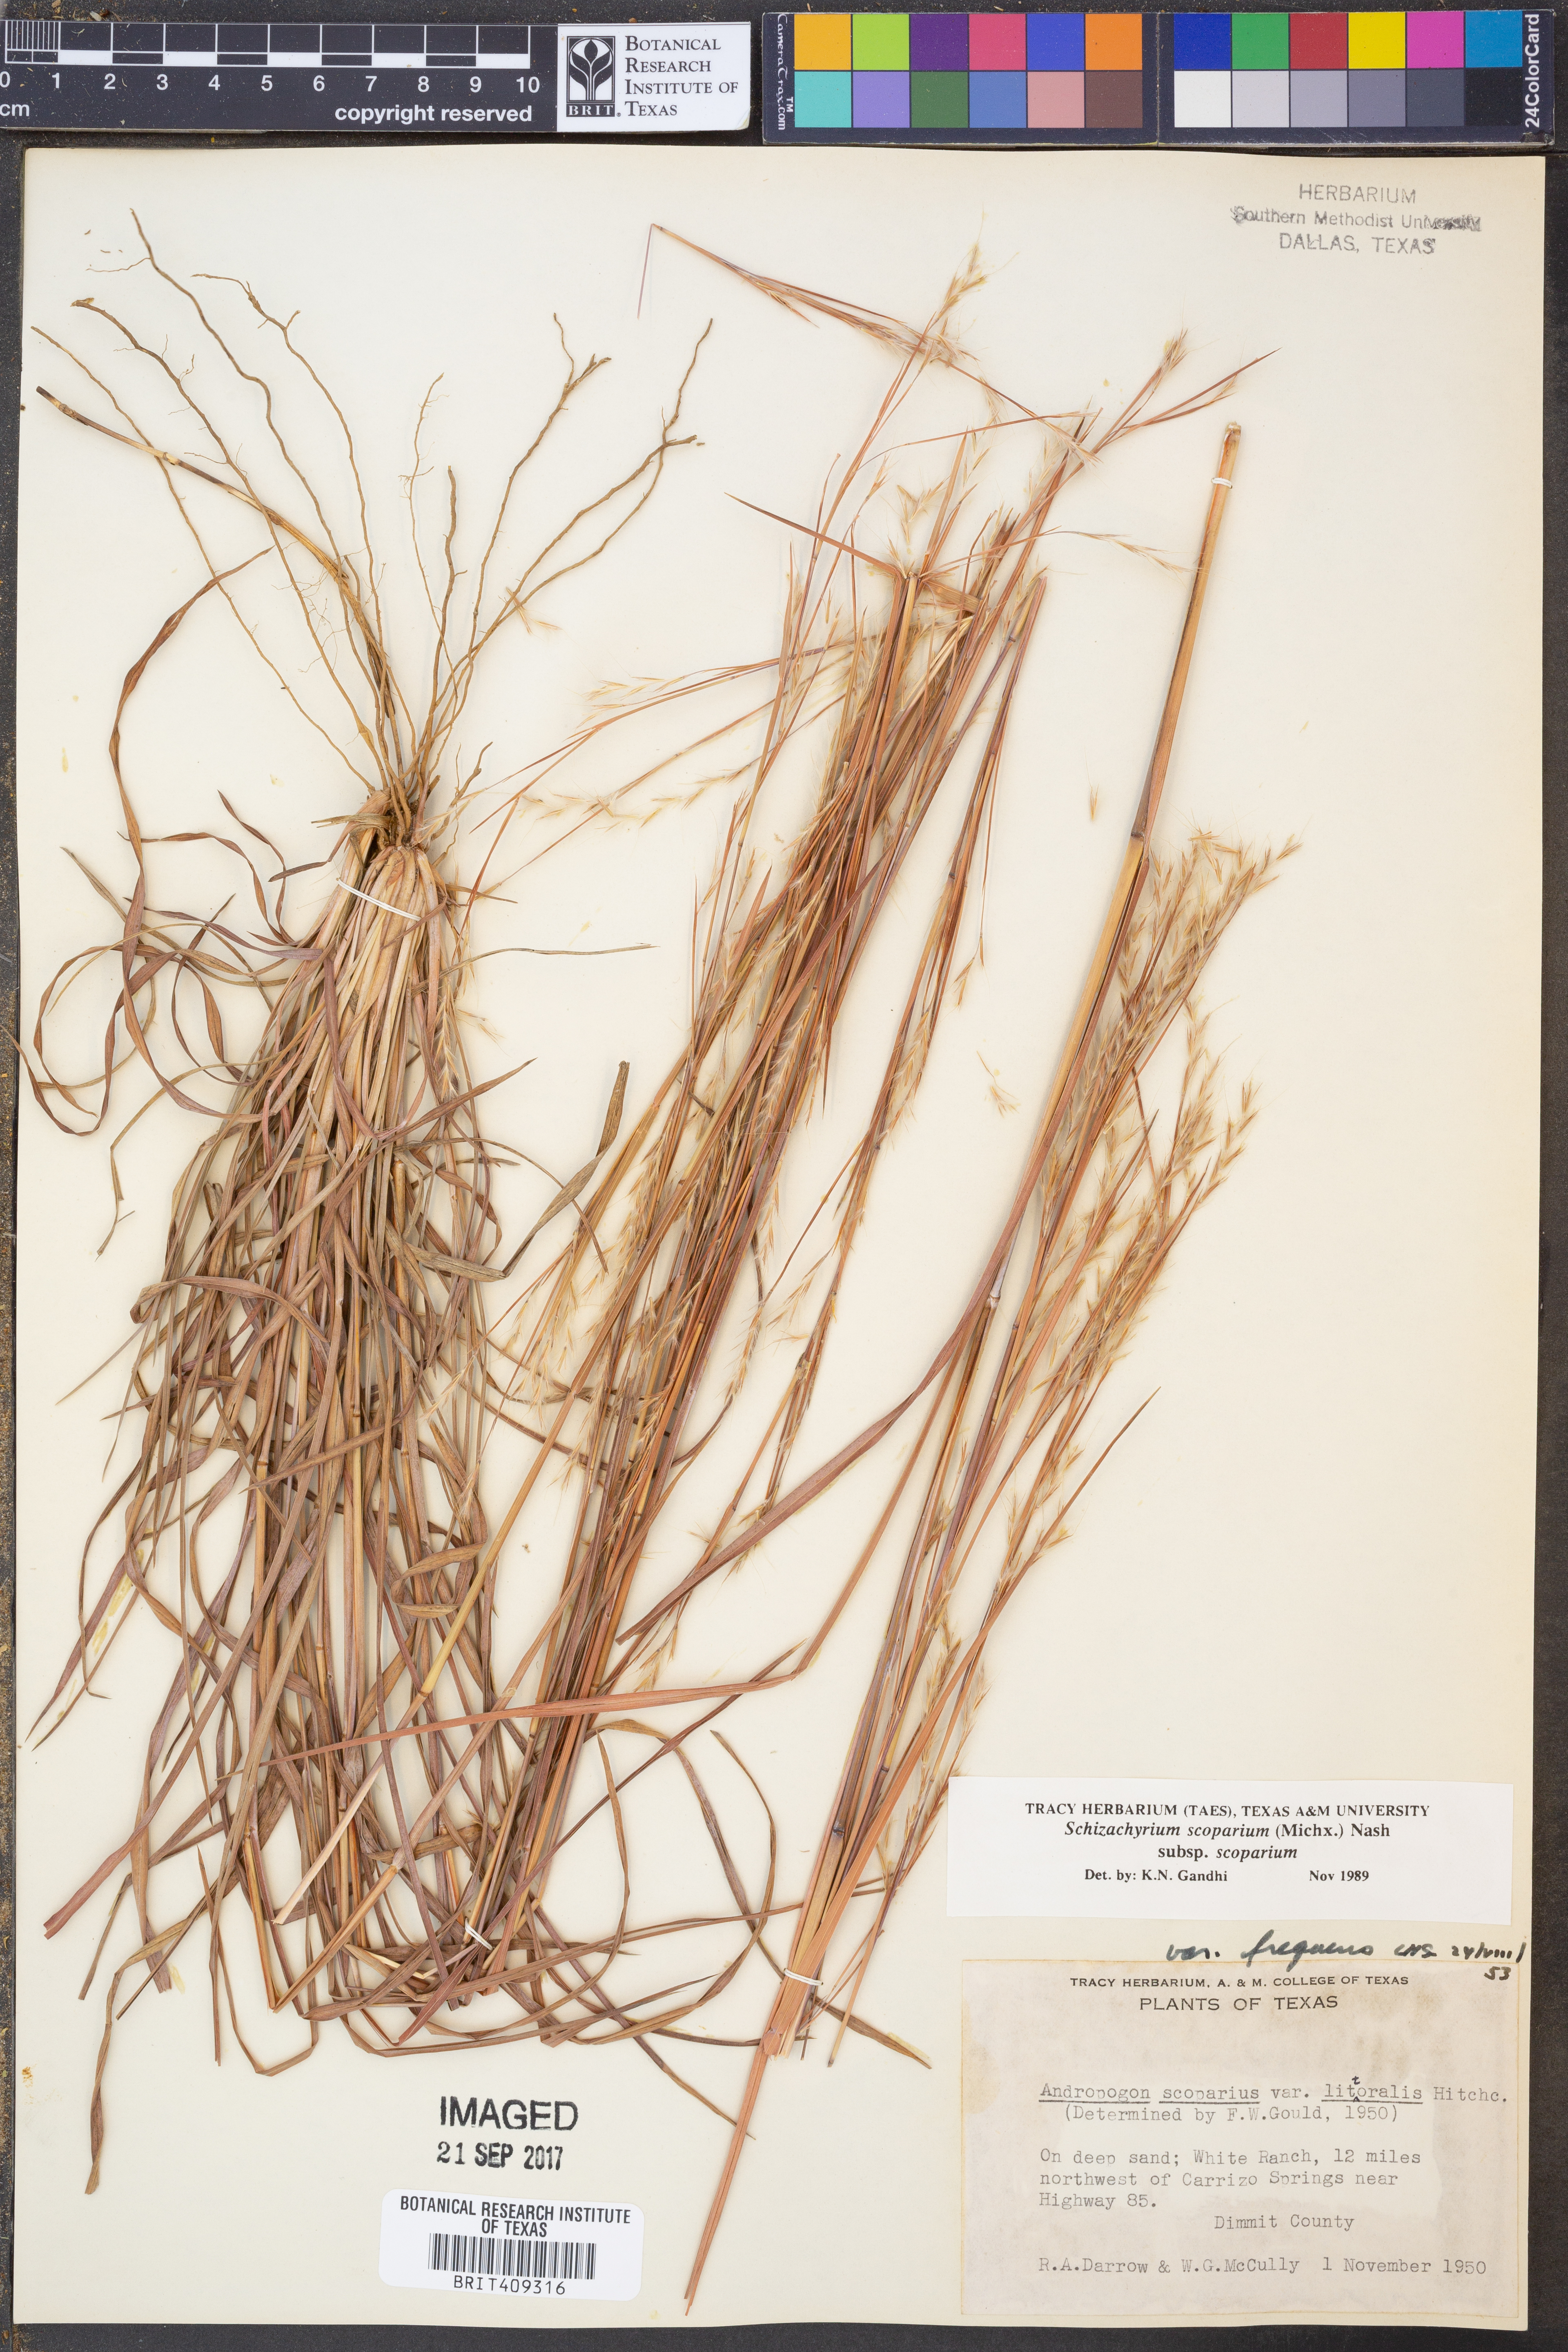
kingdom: Plantae
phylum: Tracheophyta
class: Liliopsida
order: Poales
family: Poaceae
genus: Schizachyrium
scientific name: Schizachyrium scoparium
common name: Little bluestem
